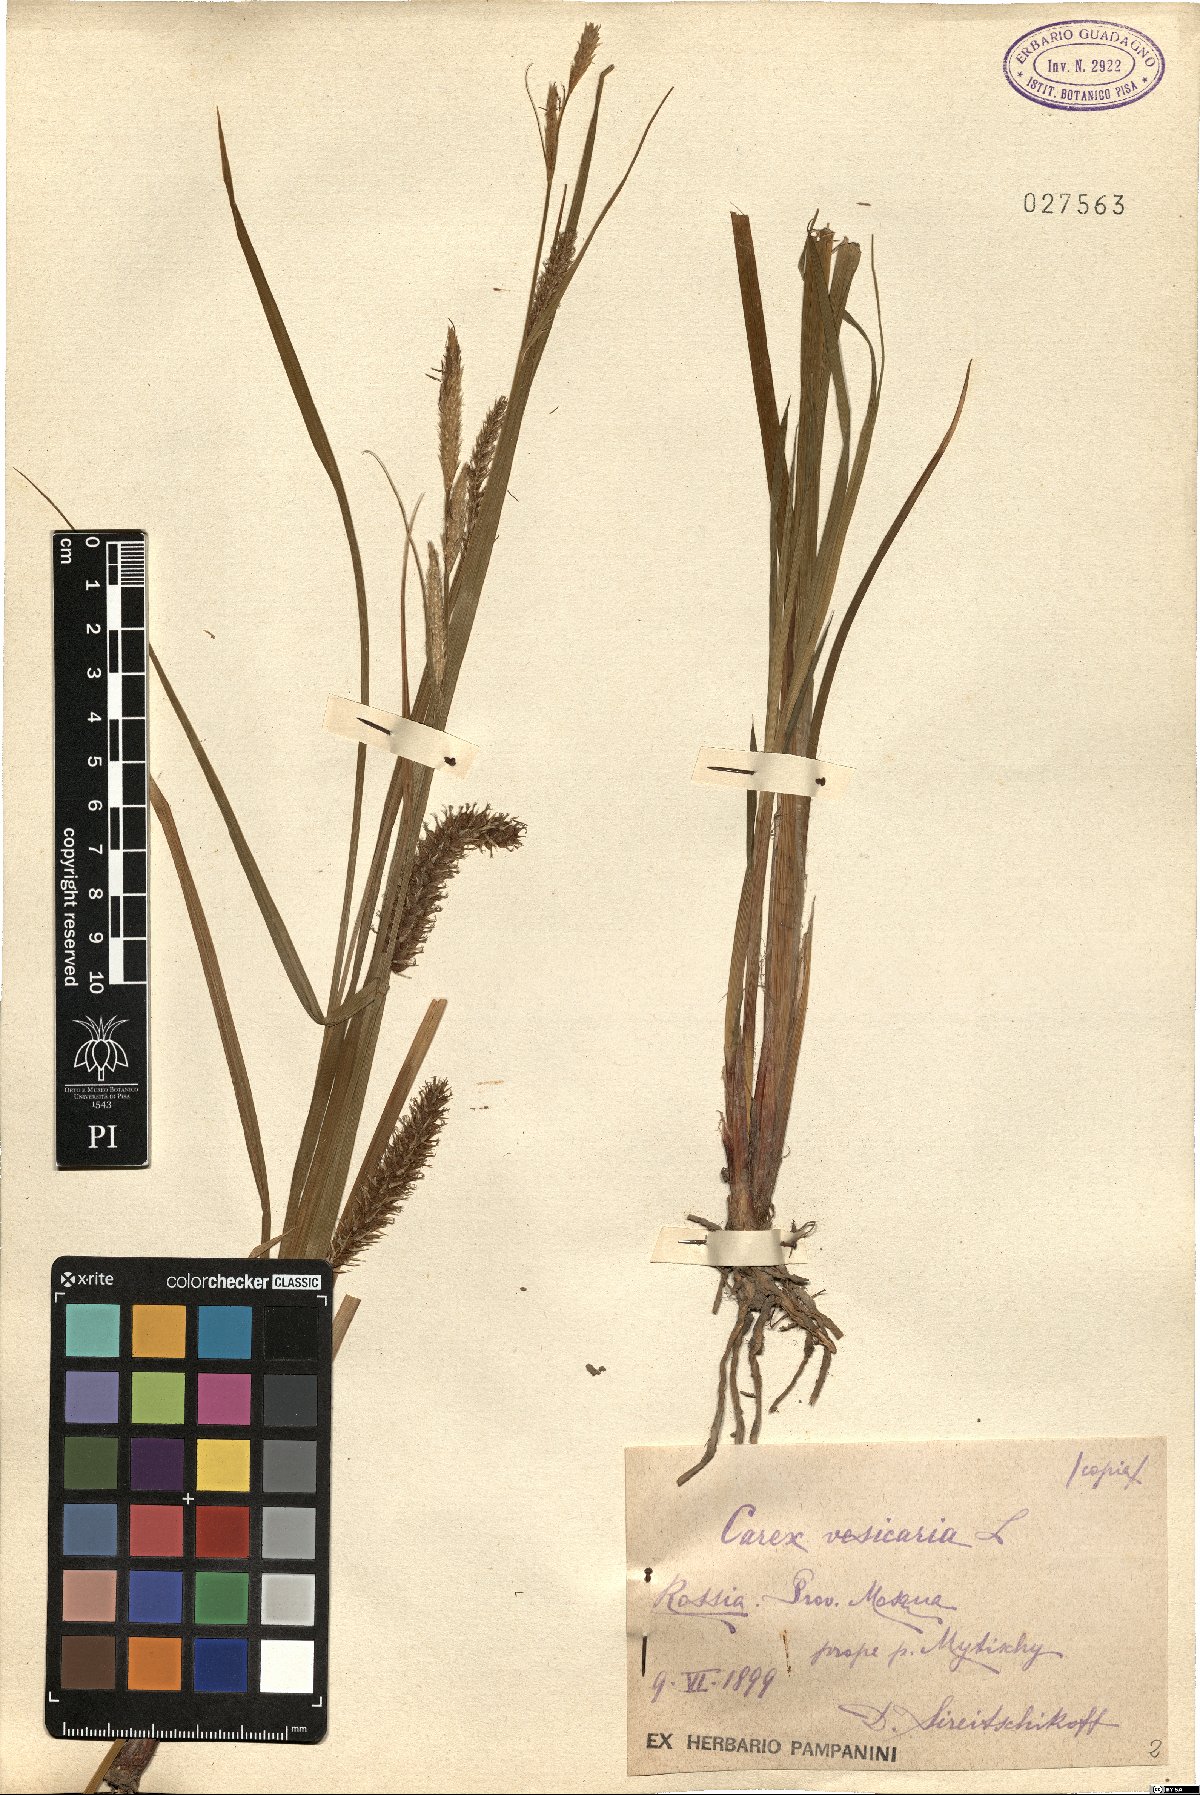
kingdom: Plantae
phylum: Tracheophyta
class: Liliopsida
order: Poales
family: Cyperaceae
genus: Carex
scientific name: Carex vesicaria
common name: Bladder-sedge
